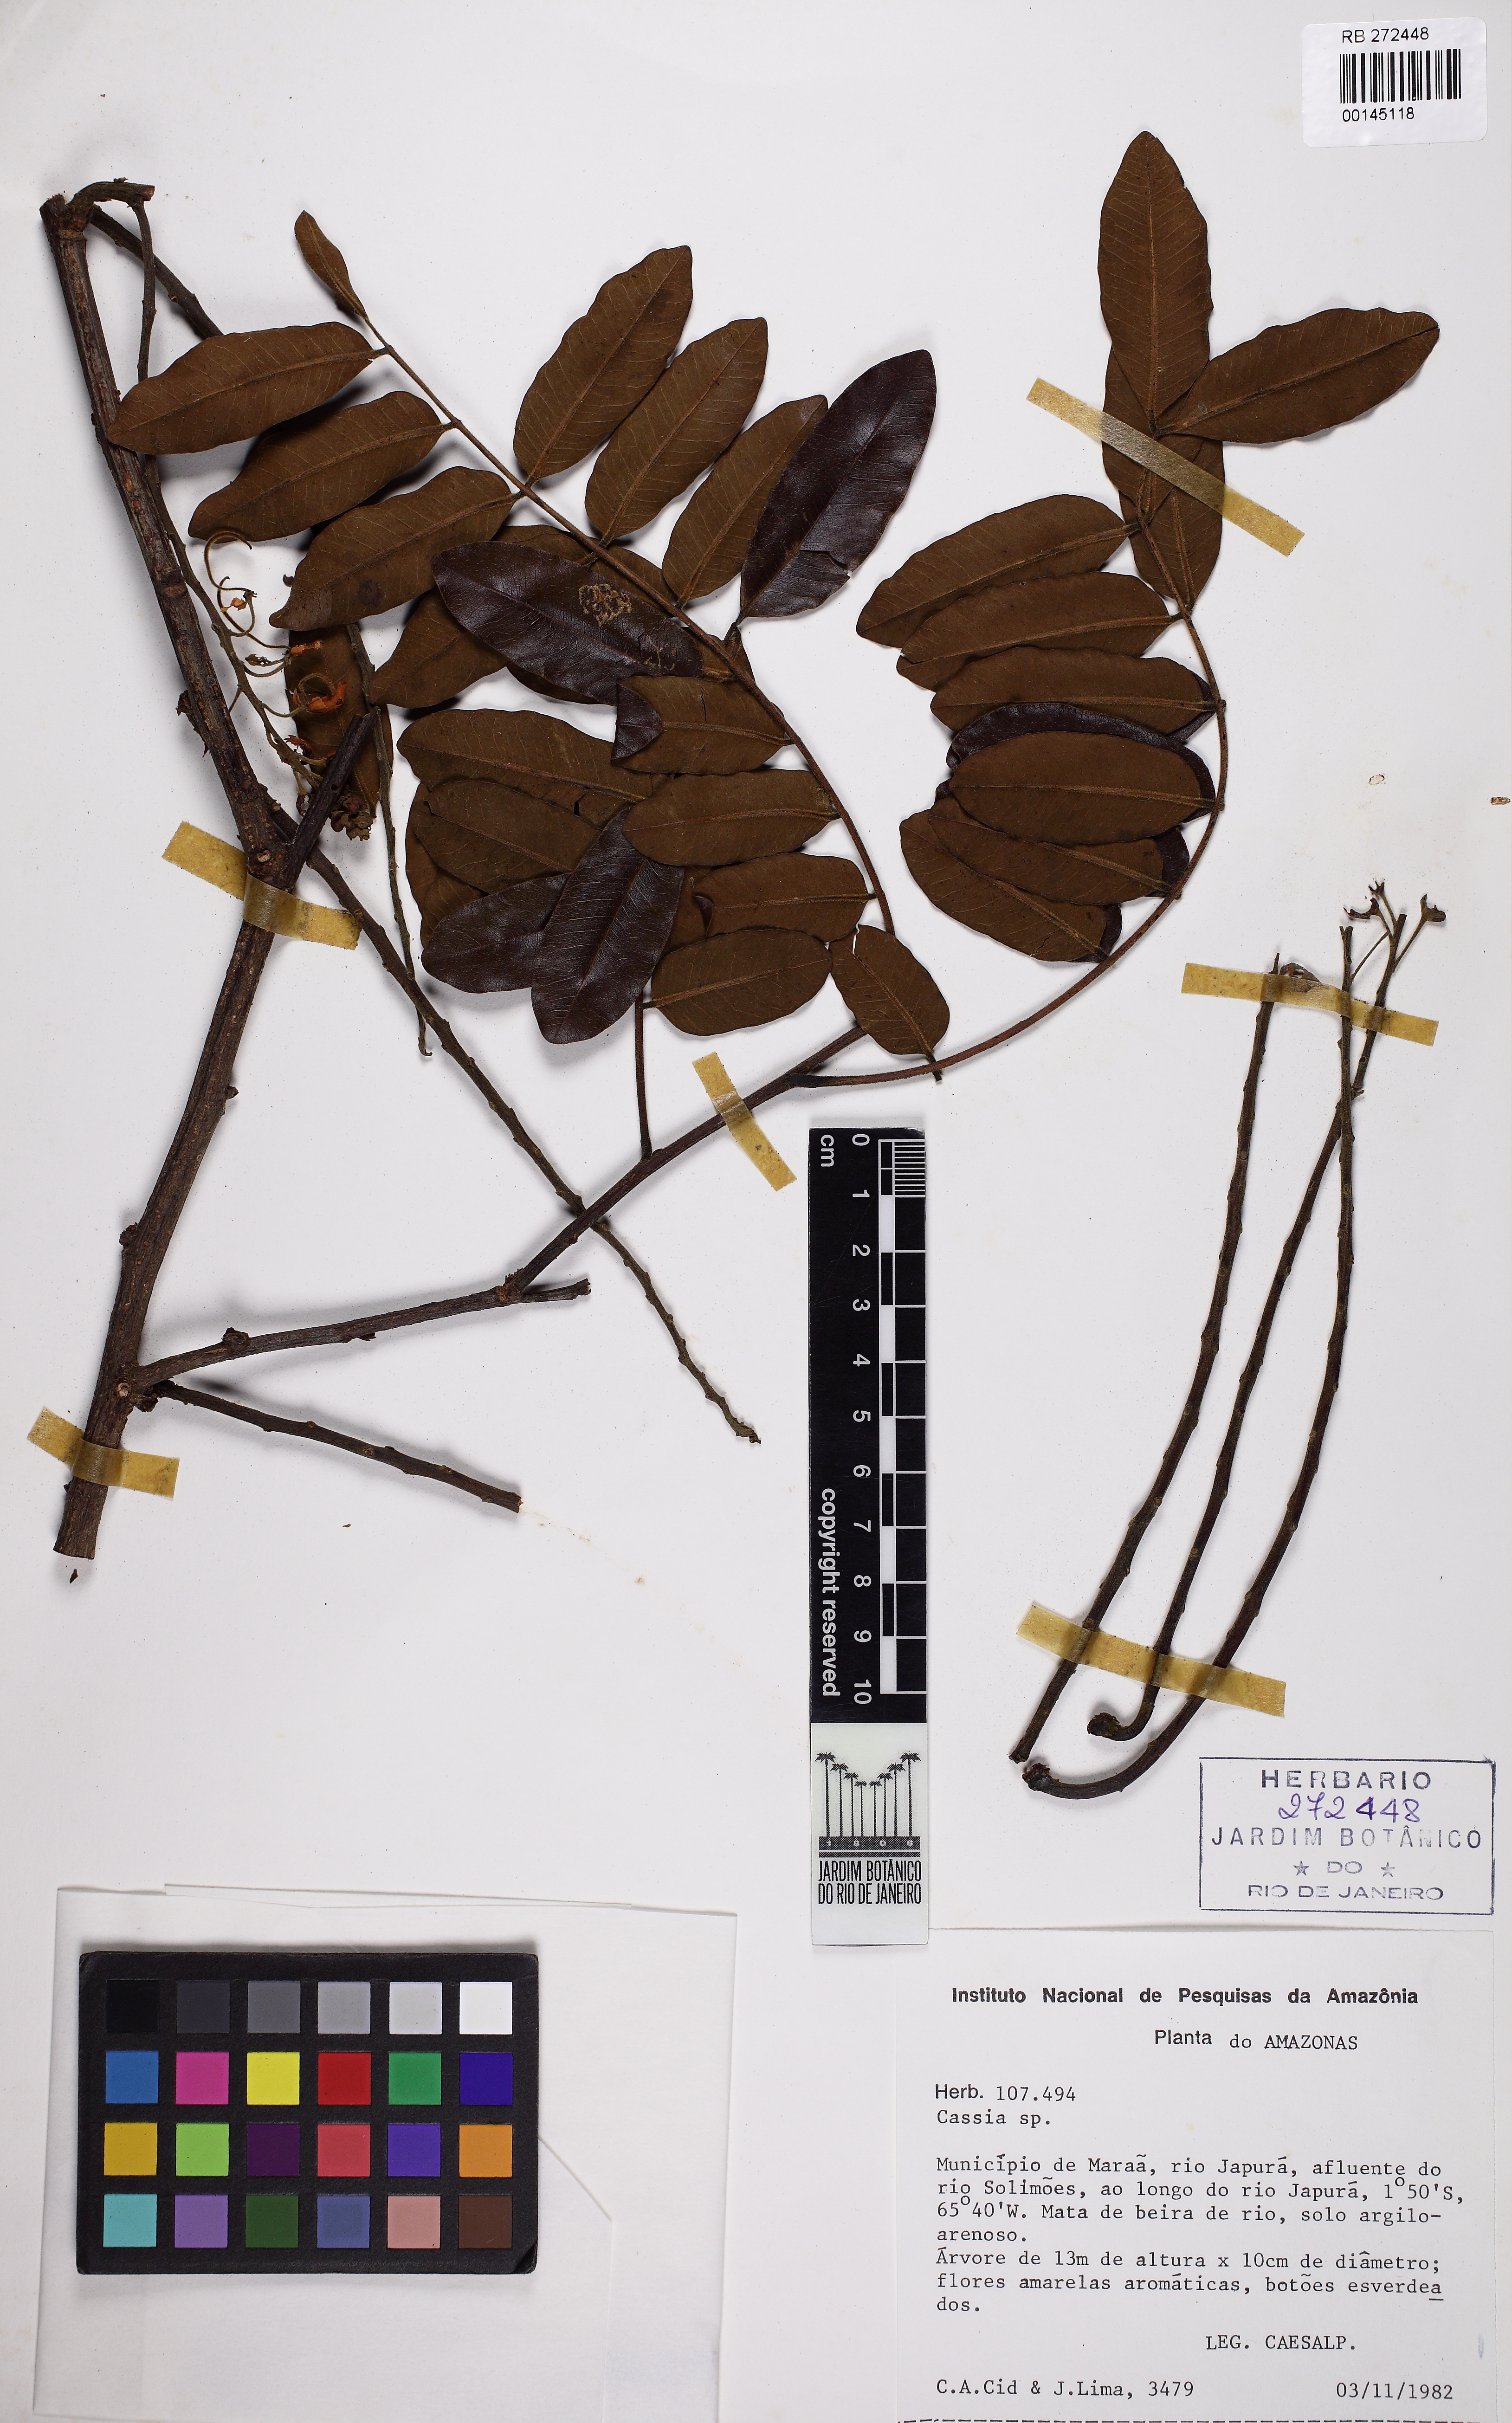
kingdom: Plantae
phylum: Tracheophyta
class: Magnoliopsida
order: Fabales
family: Fabaceae
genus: Cassia
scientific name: Cassia
